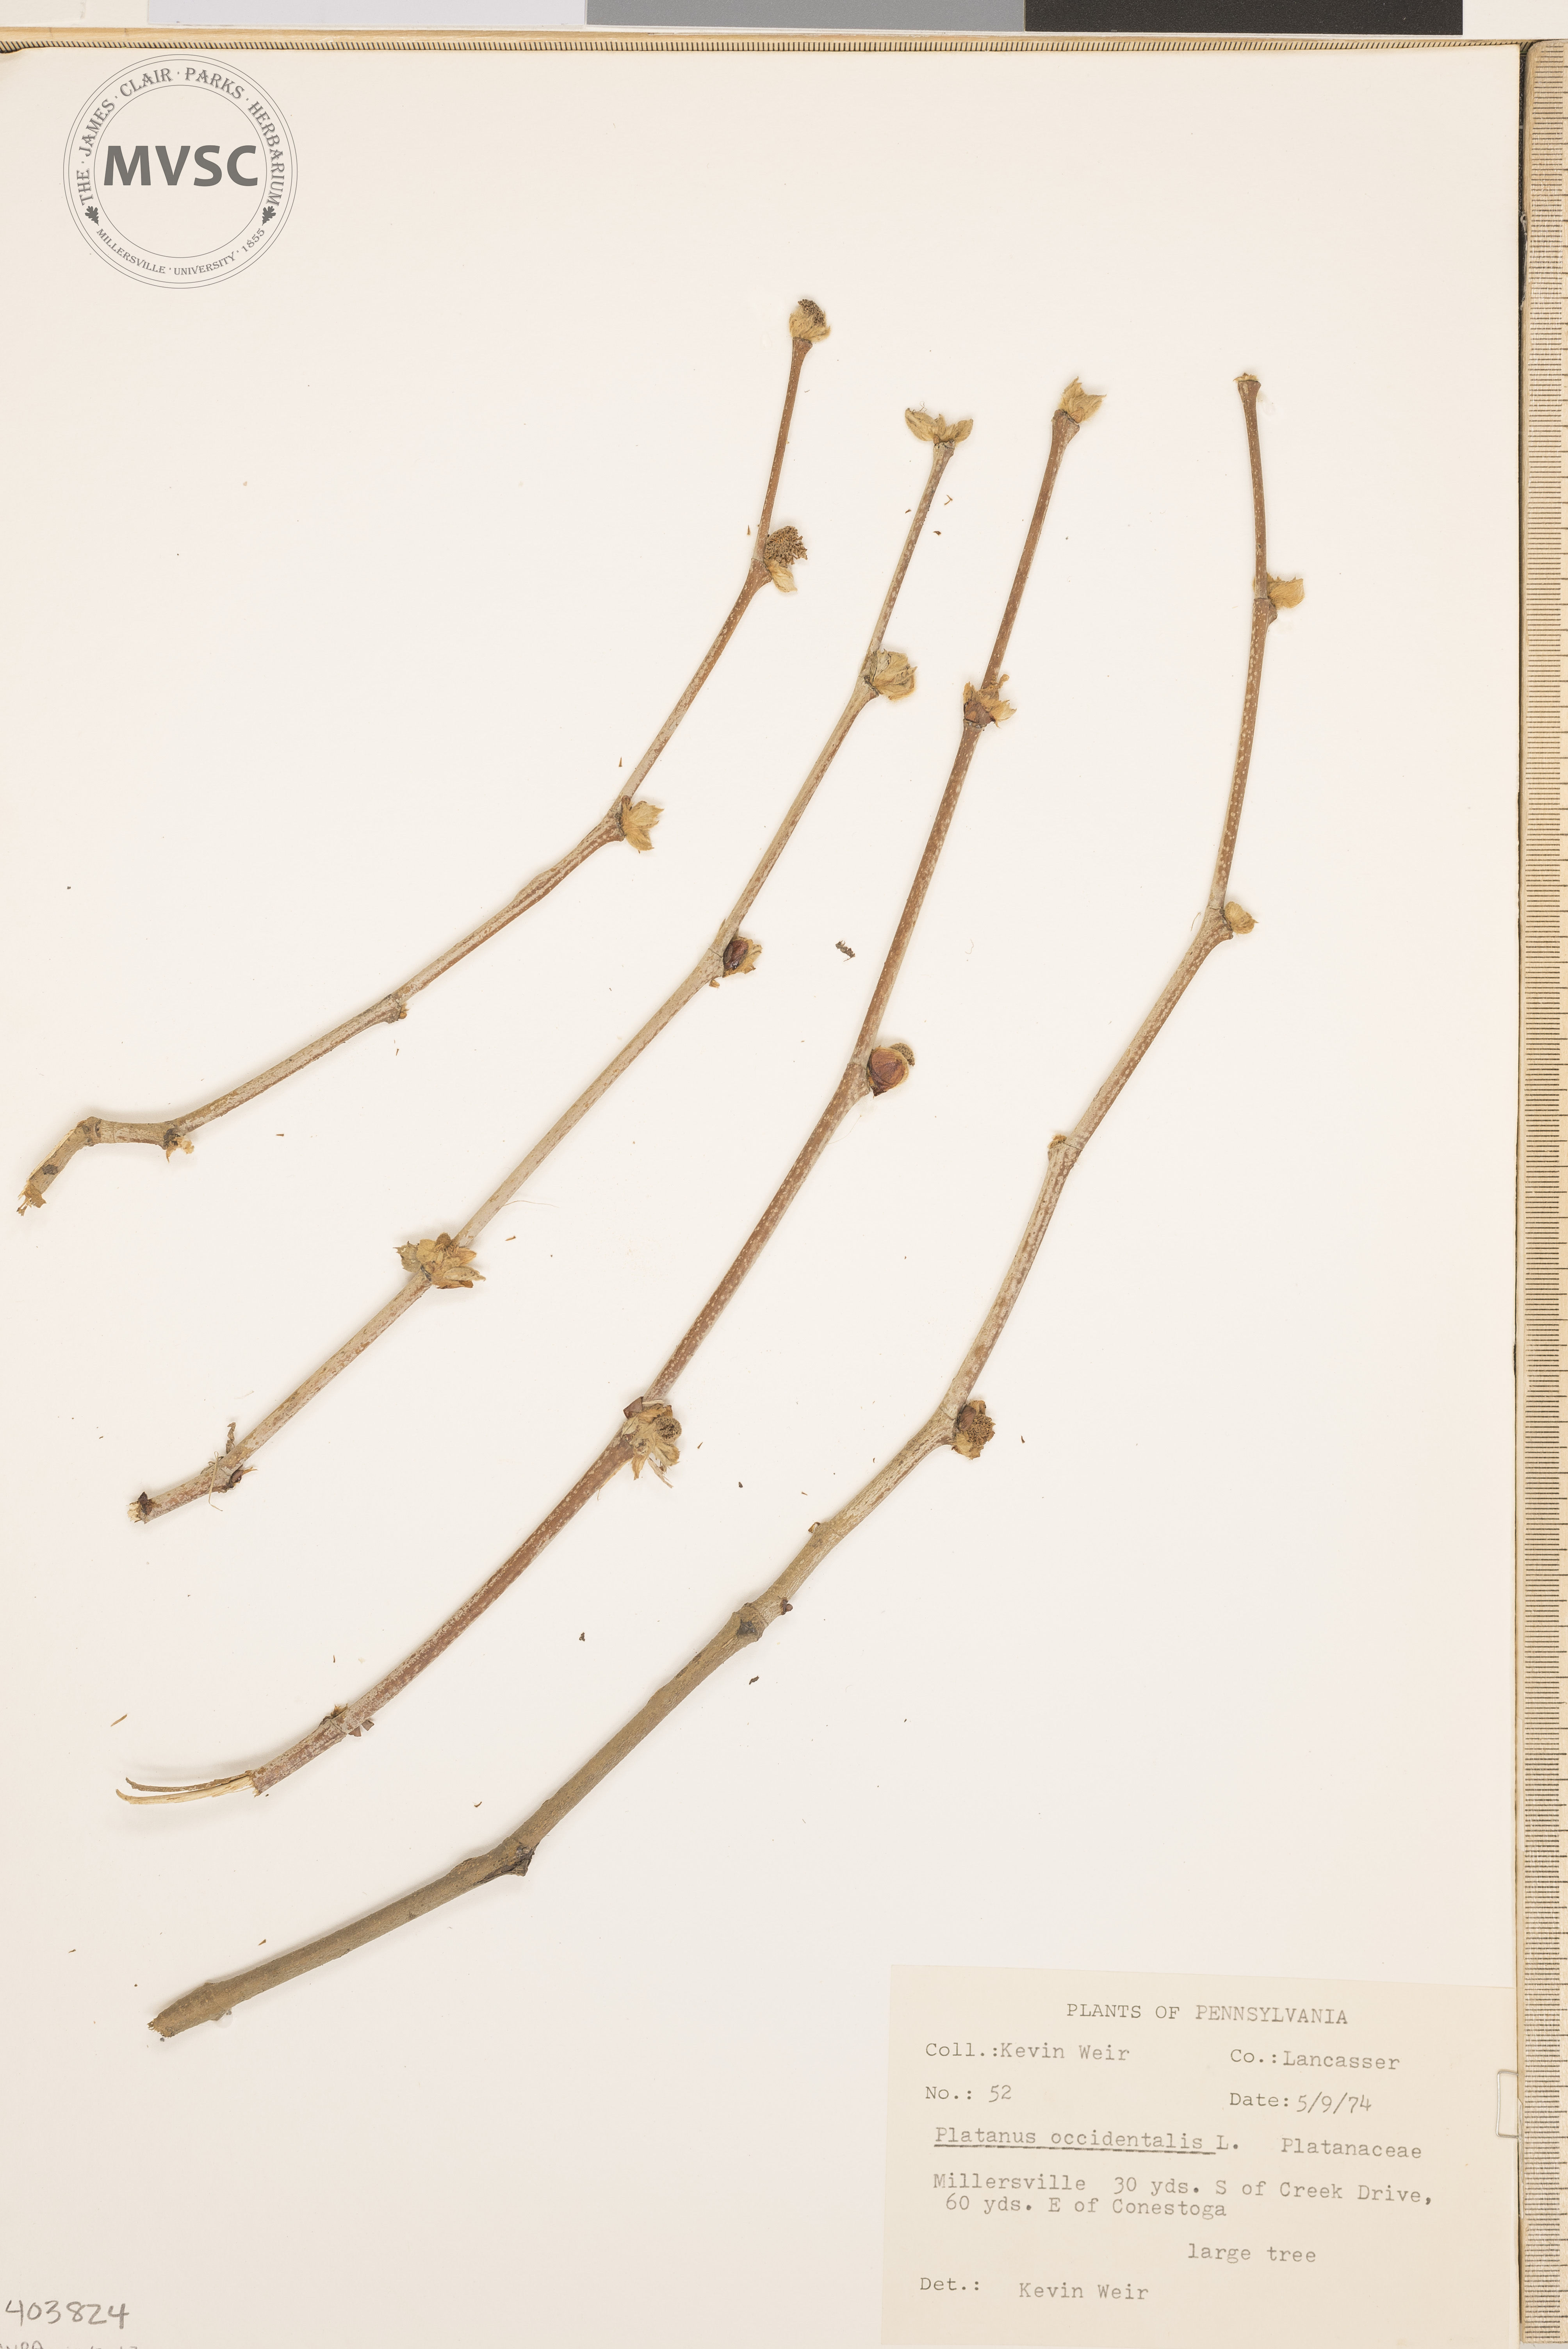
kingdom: Plantae
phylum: Tracheophyta
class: Magnoliopsida
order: Proteales
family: Platanaceae
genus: Platanus
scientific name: Platanus occidentalis
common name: Sycamore
